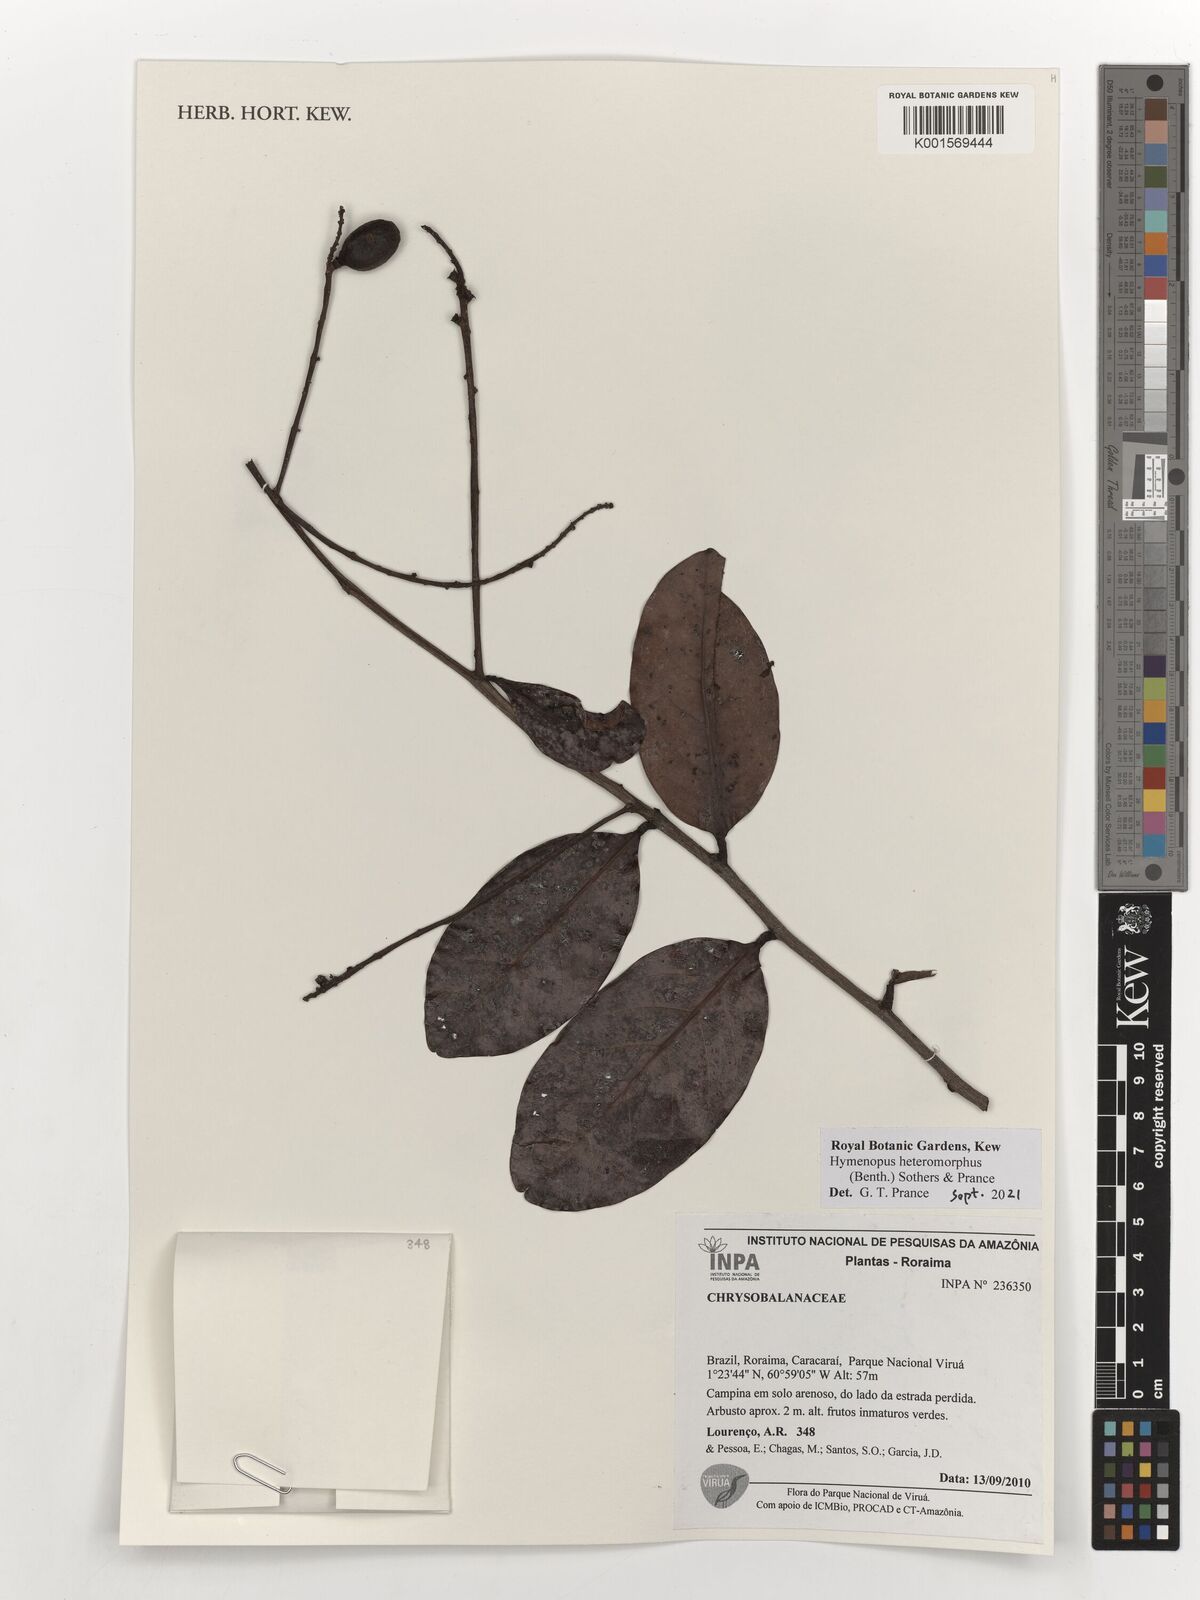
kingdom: Plantae
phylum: Tracheophyta
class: Magnoliopsida
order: Malpighiales
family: Chrysobalanaceae
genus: Hymenopus
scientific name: Hymenopus heteromorphus
